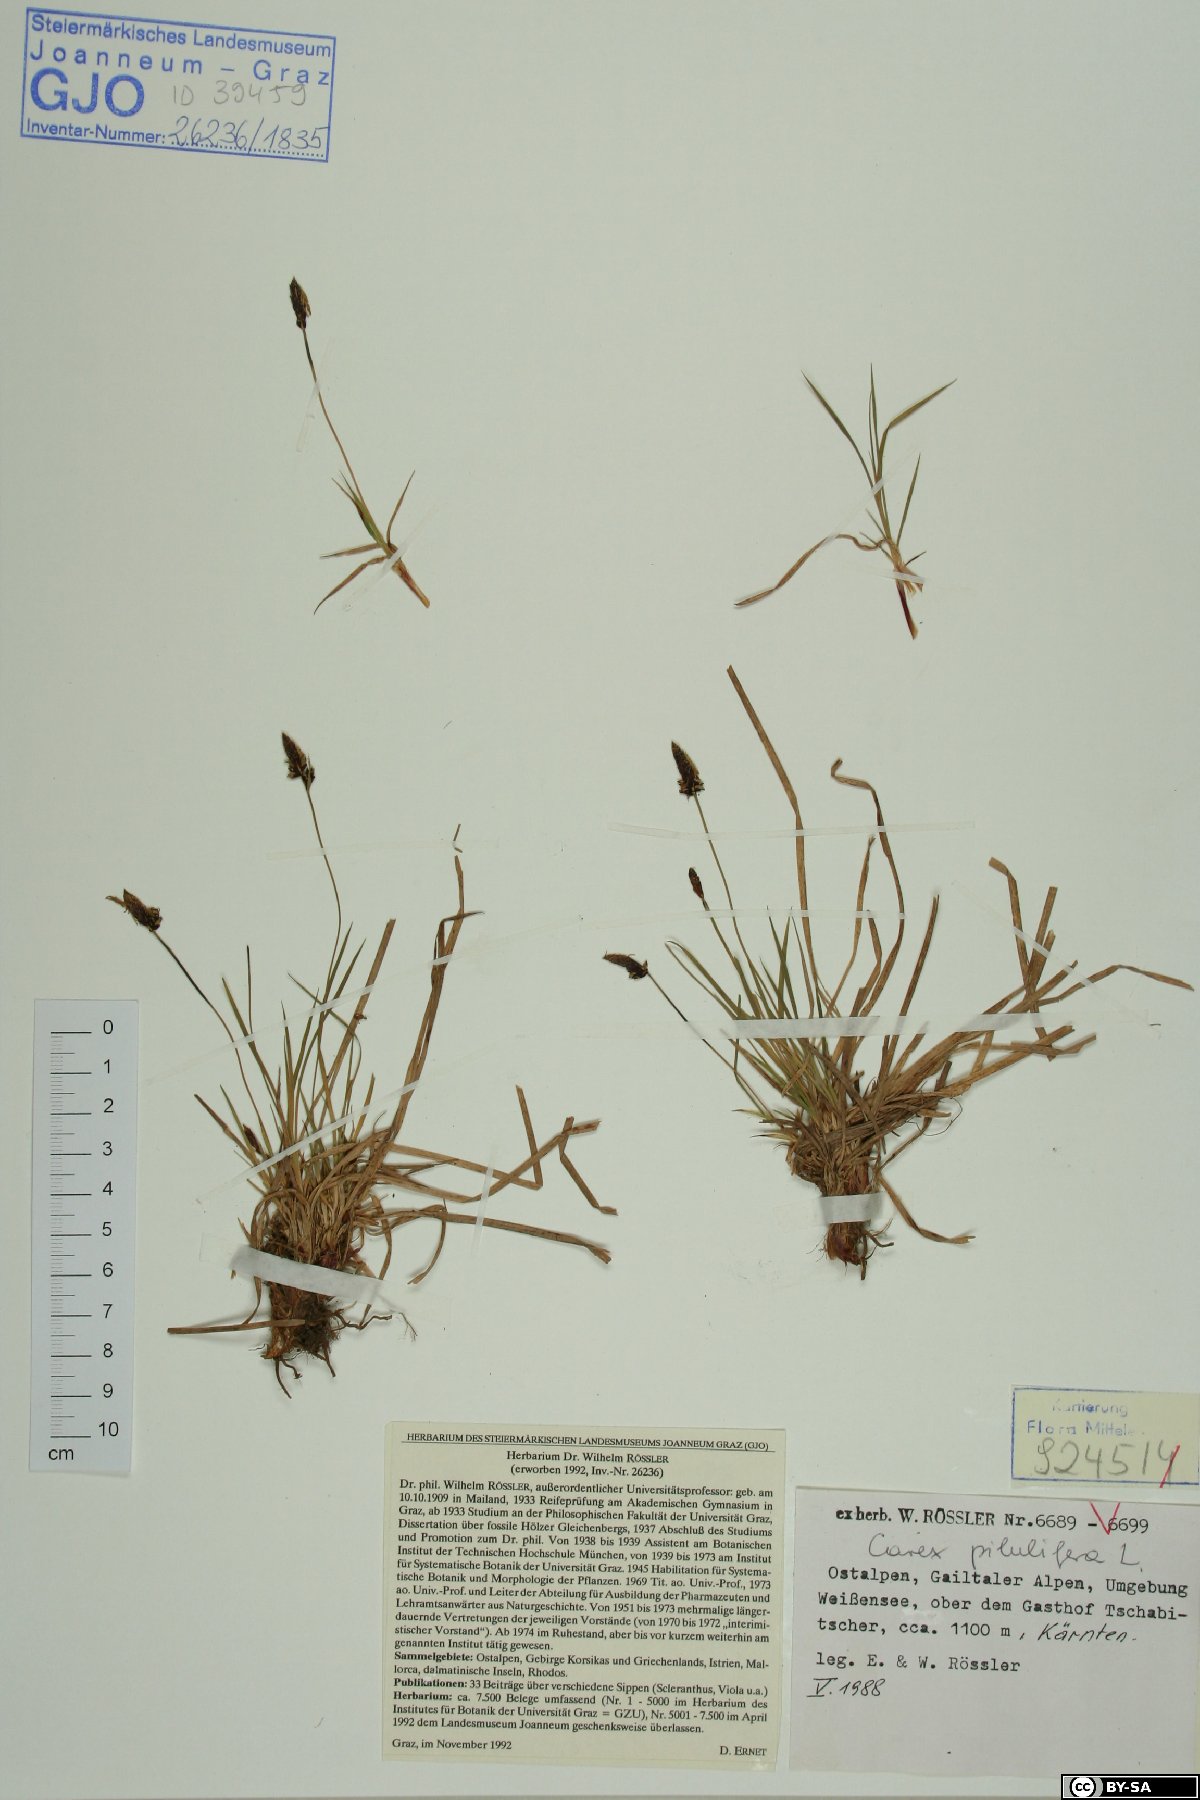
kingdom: Plantae
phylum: Tracheophyta
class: Liliopsida
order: Poales
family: Cyperaceae
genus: Carex
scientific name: Carex pilulifera
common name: Pill sedge
